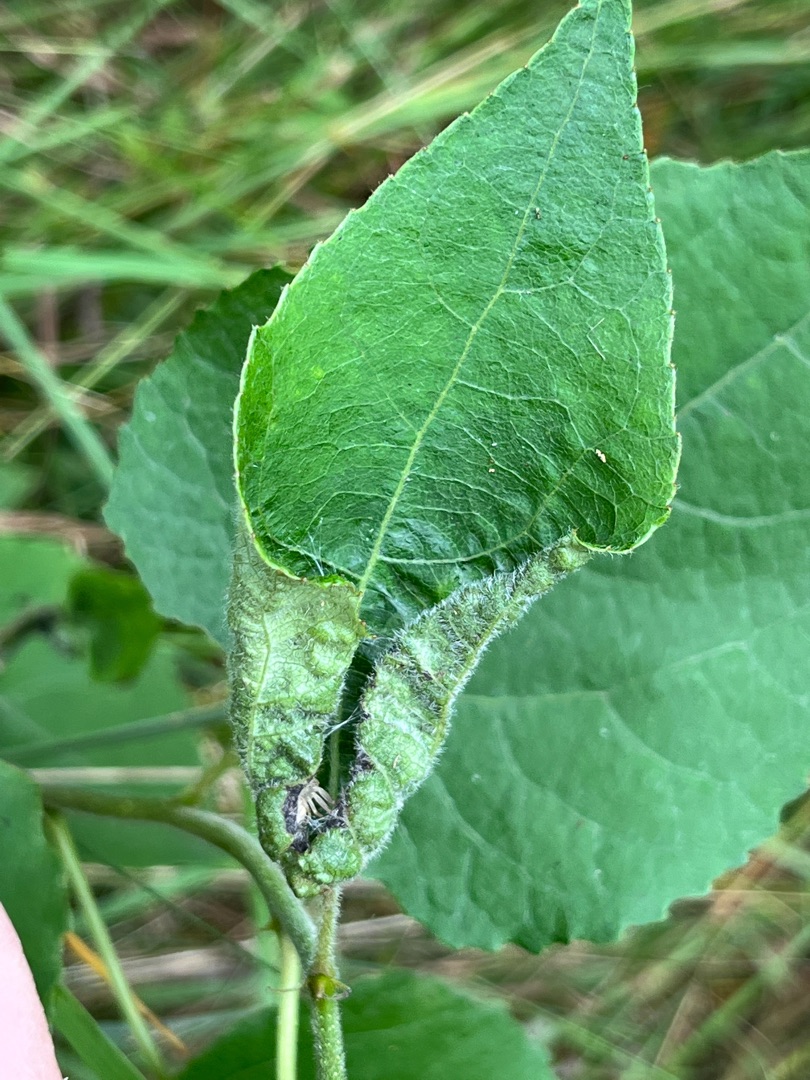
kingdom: Animalia
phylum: Arthropoda
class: Insecta
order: Diptera
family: Cecidomyiidae
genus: Dasineura
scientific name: Dasineura populeti
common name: Asperullergalmyg
